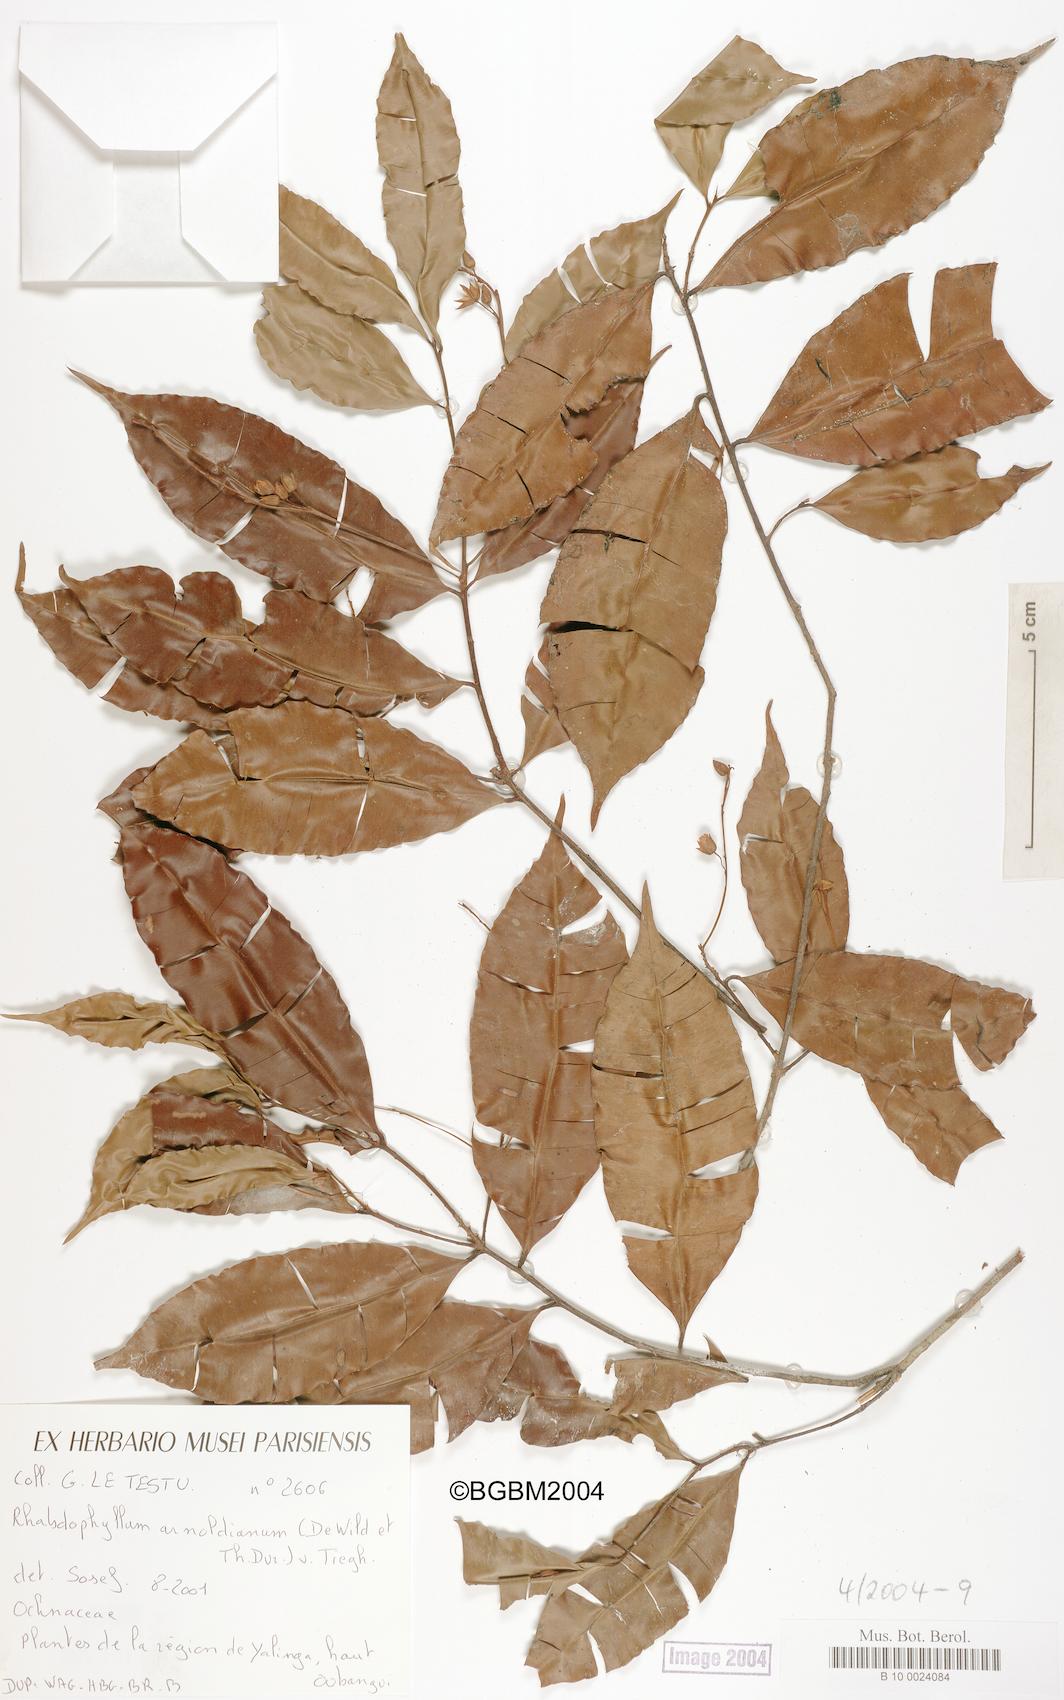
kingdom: Plantae
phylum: Tracheophyta
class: Magnoliopsida
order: Malpighiales
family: Ochnaceae
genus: Rhabdophyllum
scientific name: Rhabdophyllum arnoldianum
